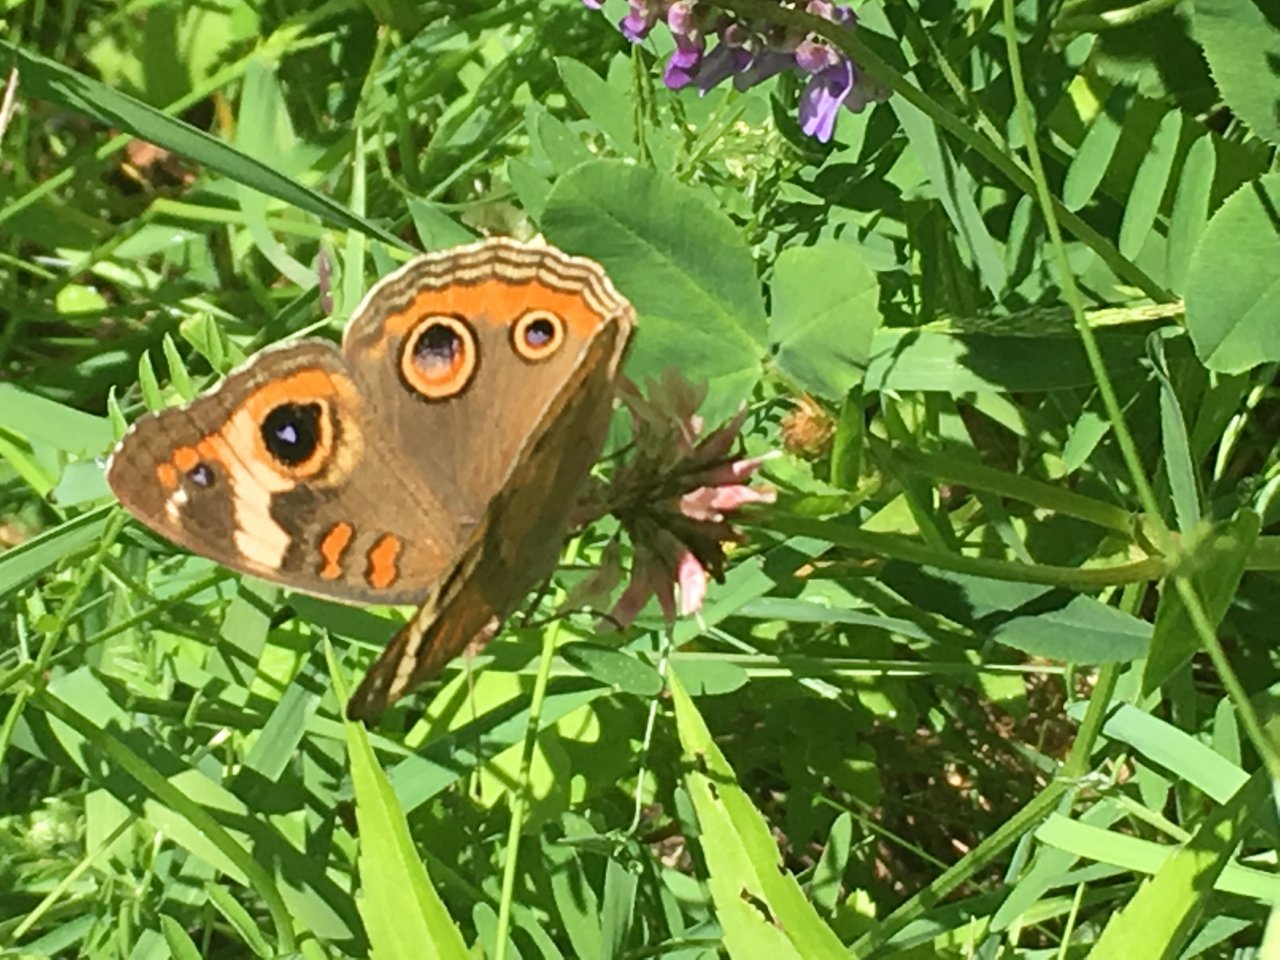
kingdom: Animalia
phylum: Arthropoda
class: Insecta
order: Lepidoptera
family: Nymphalidae
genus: Junonia
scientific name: Junonia coenia
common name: Common Buckeye
